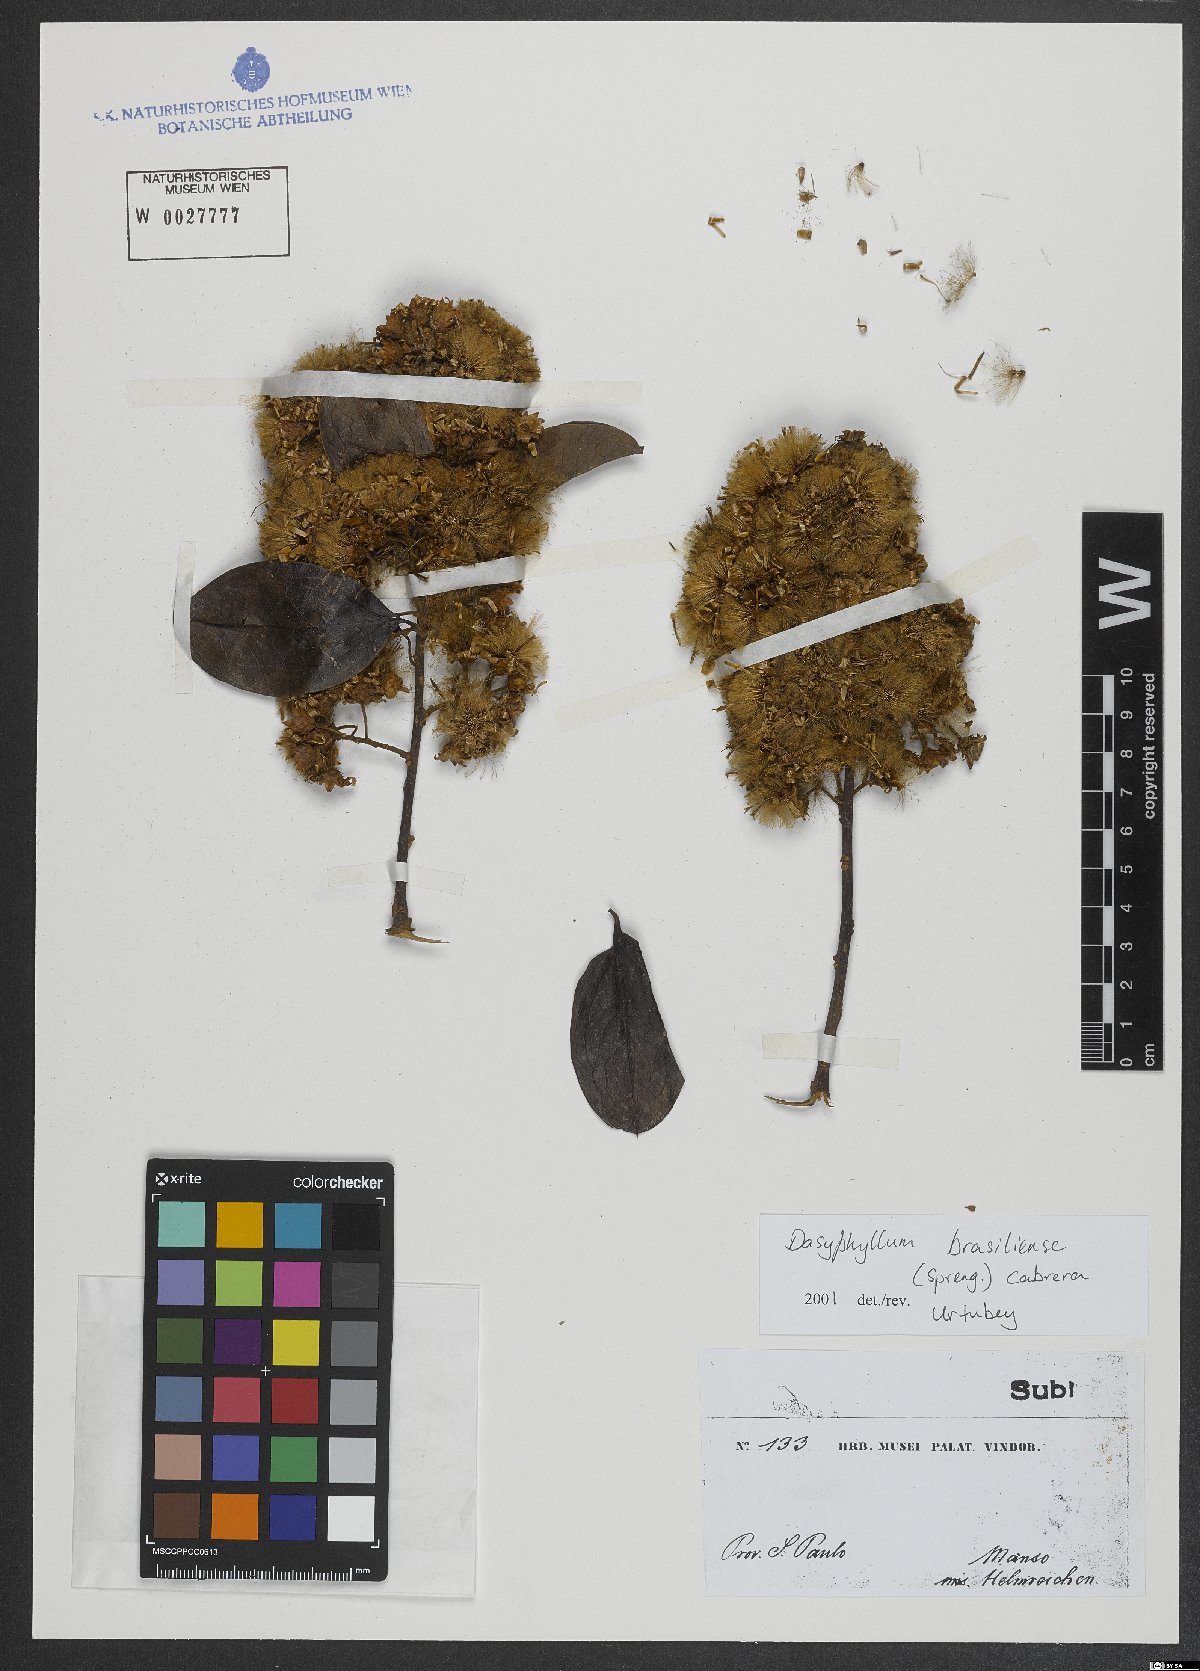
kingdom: Plantae
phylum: Tracheophyta
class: Magnoliopsida
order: Asterales
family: Asteraceae
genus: Dasyphyllum
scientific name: Dasyphyllum brasiliense
